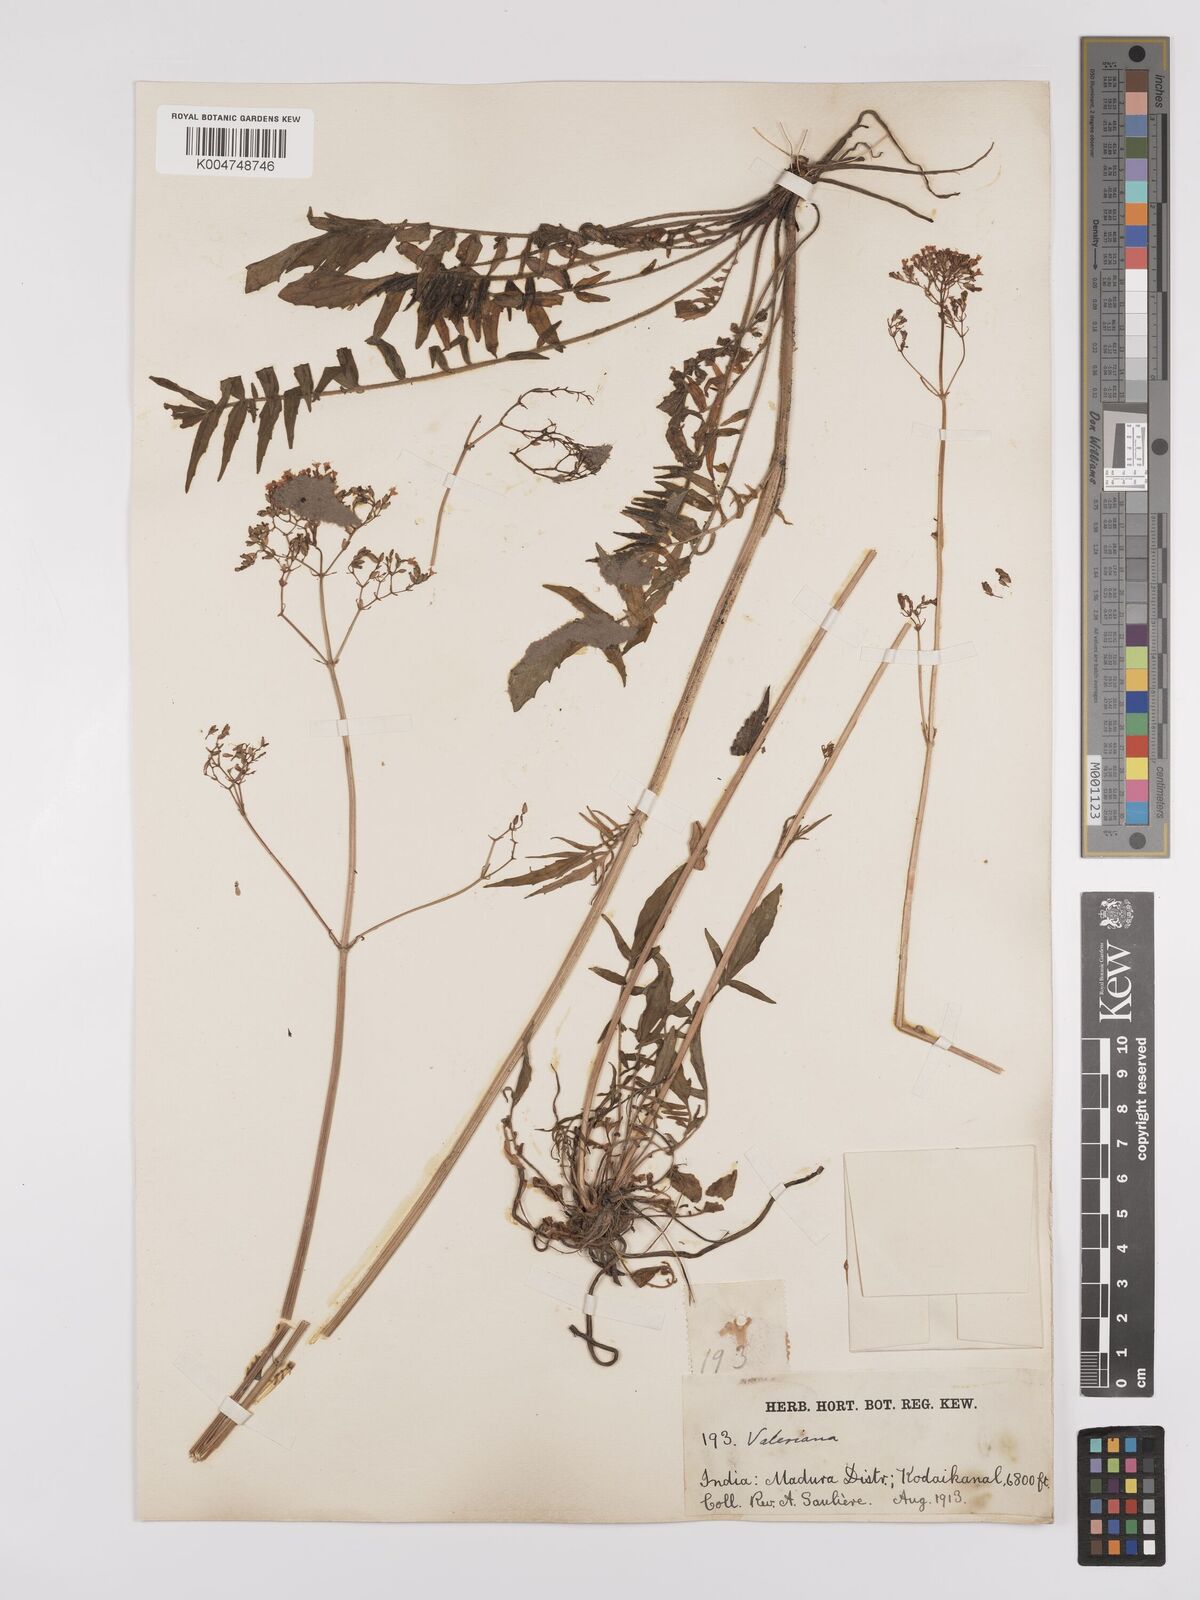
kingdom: Plantae
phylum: Tracheophyta
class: Magnoliopsida
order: Dipsacales
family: Caprifoliaceae
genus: Valeriana
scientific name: Valeriana beddomei
